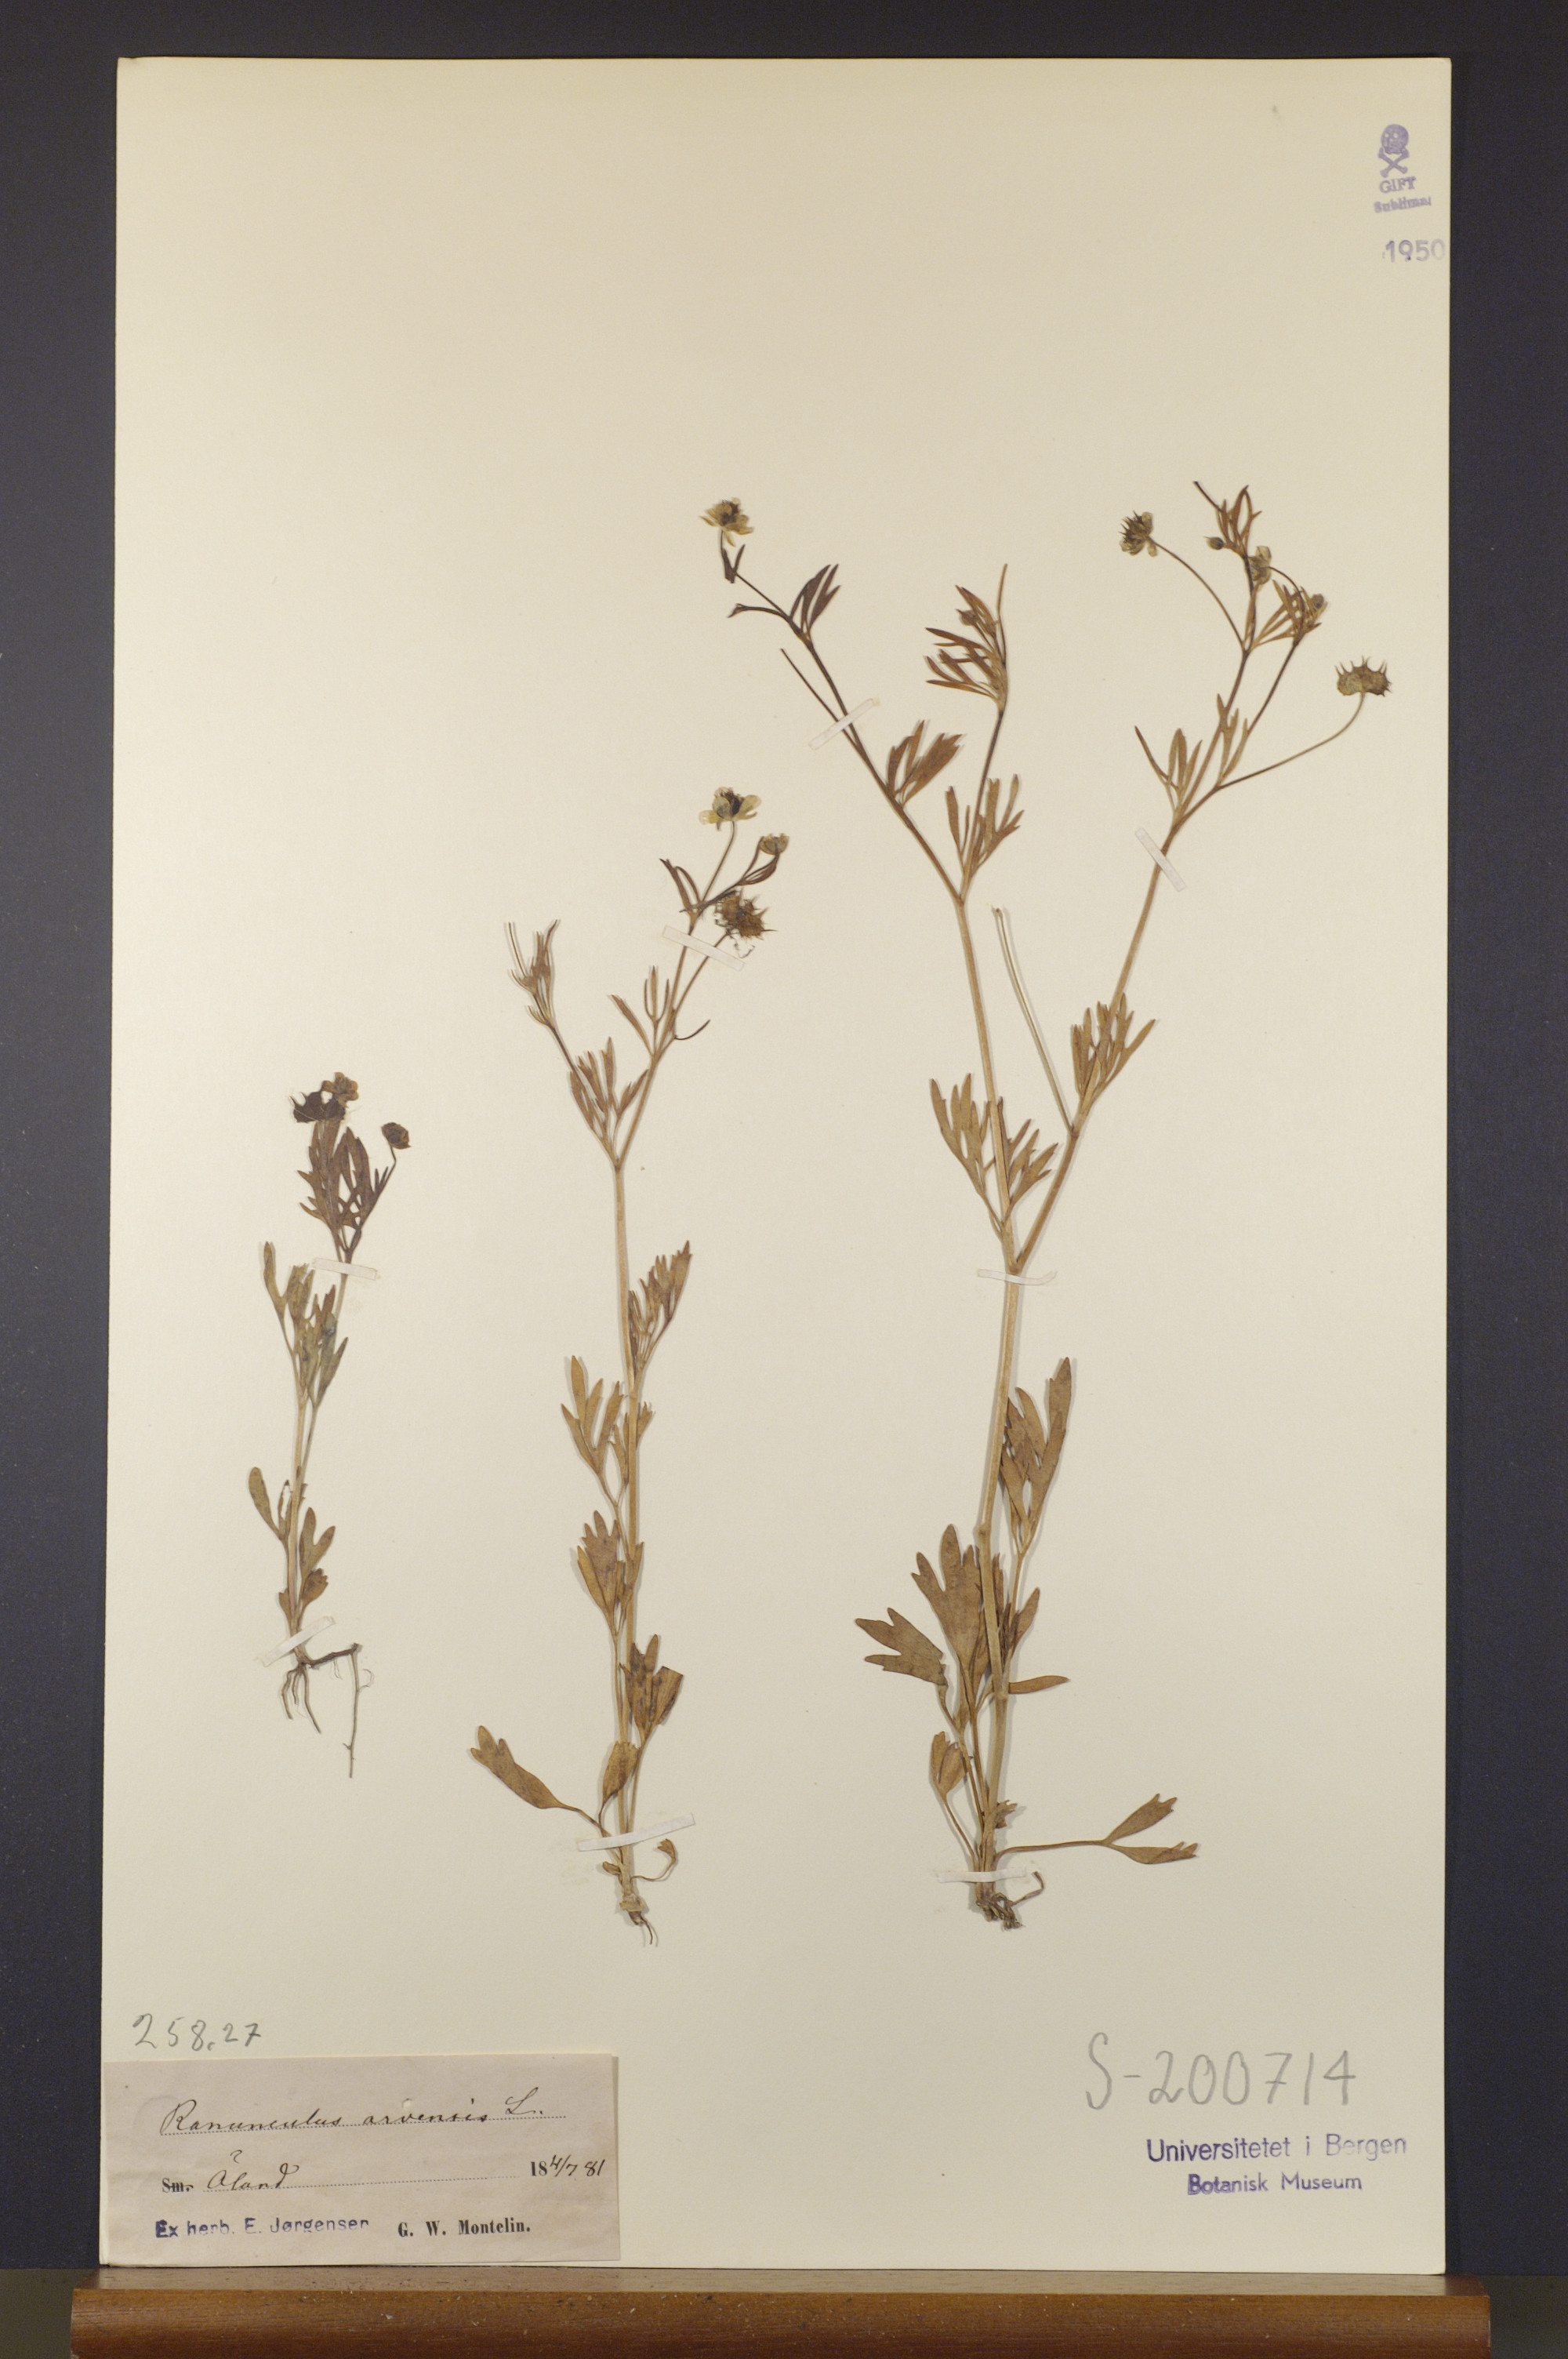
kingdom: Plantae
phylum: Tracheophyta
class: Magnoliopsida
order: Ranunculales
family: Ranunculaceae
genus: Ranunculus
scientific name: Ranunculus arvensis
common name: Corn buttercup
